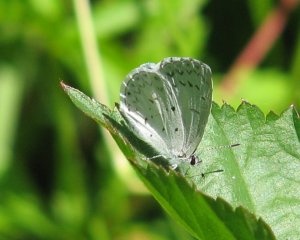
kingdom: Animalia
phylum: Arthropoda
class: Insecta
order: Lepidoptera
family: Lycaenidae
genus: Celastrina
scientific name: Celastrina
